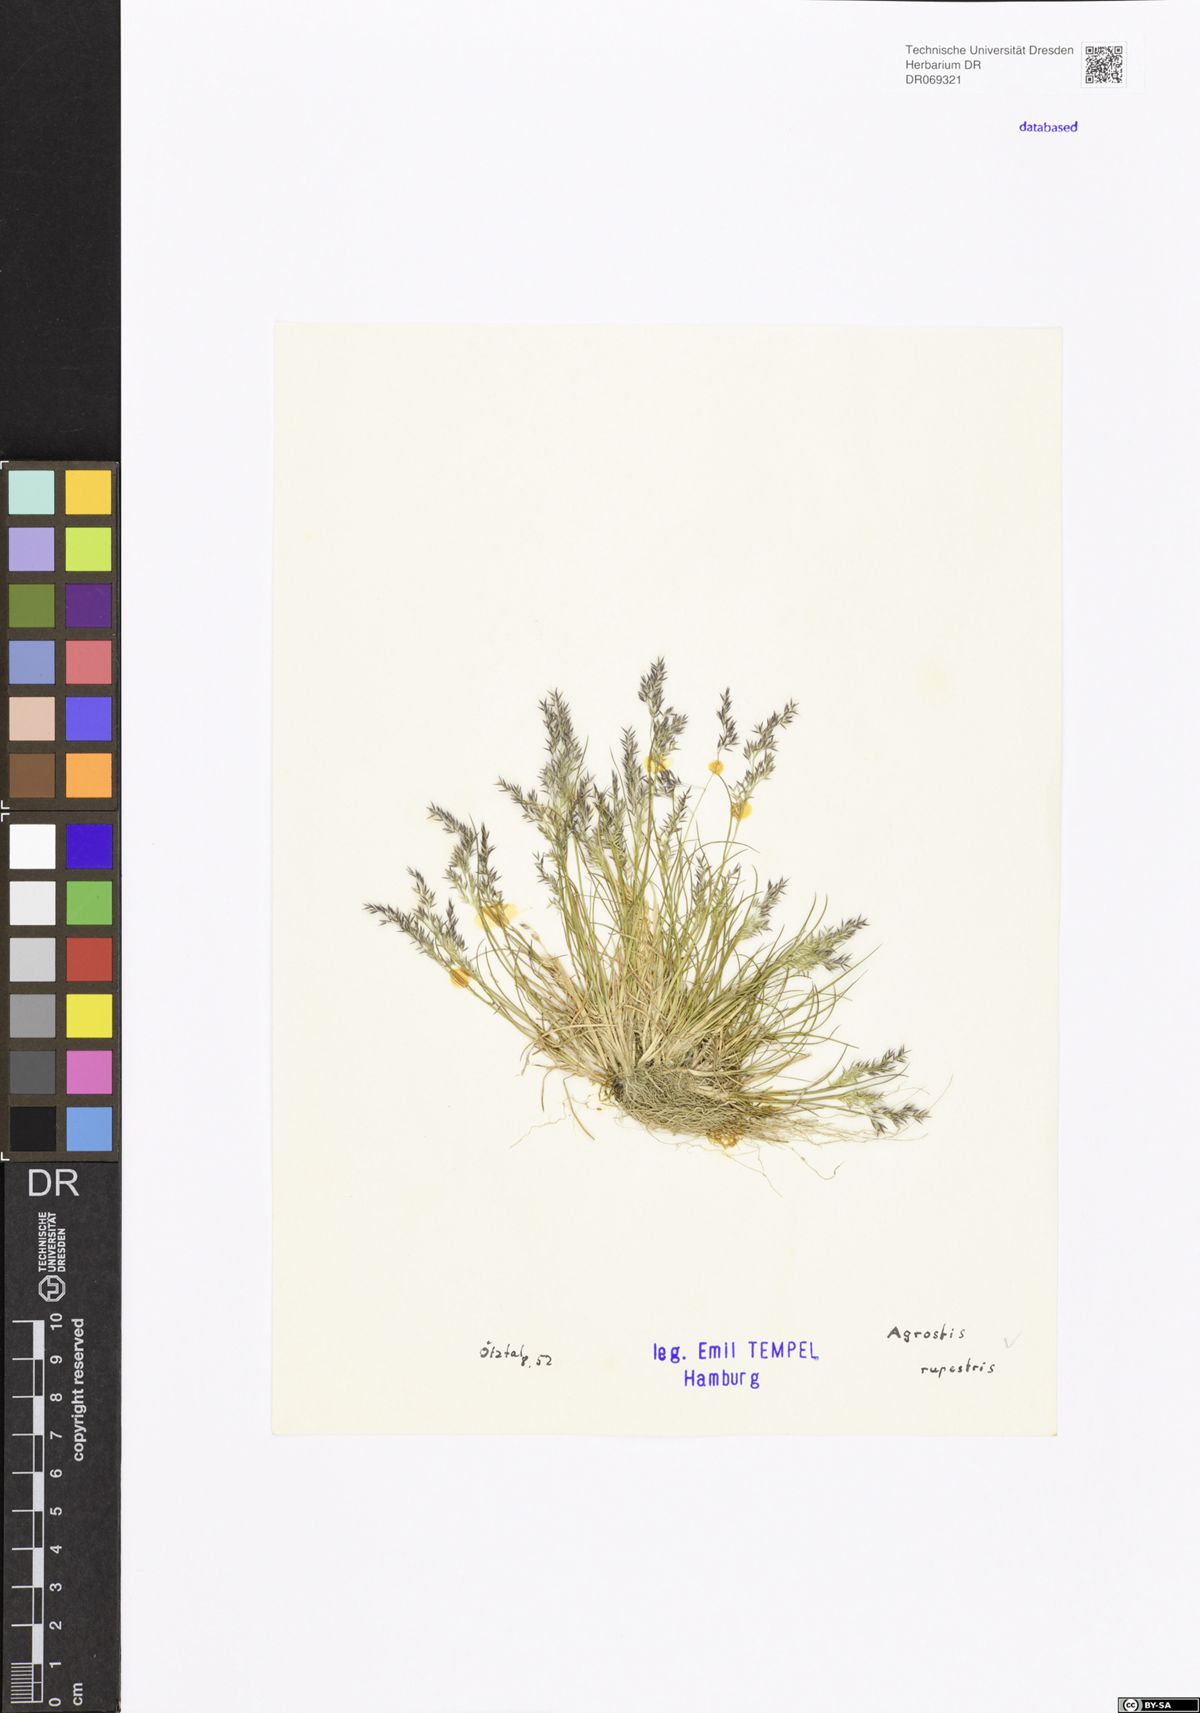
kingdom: Plantae
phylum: Tracheophyta
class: Liliopsida
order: Poales
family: Poaceae
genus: Agrostis
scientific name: Agrostis rupestris
